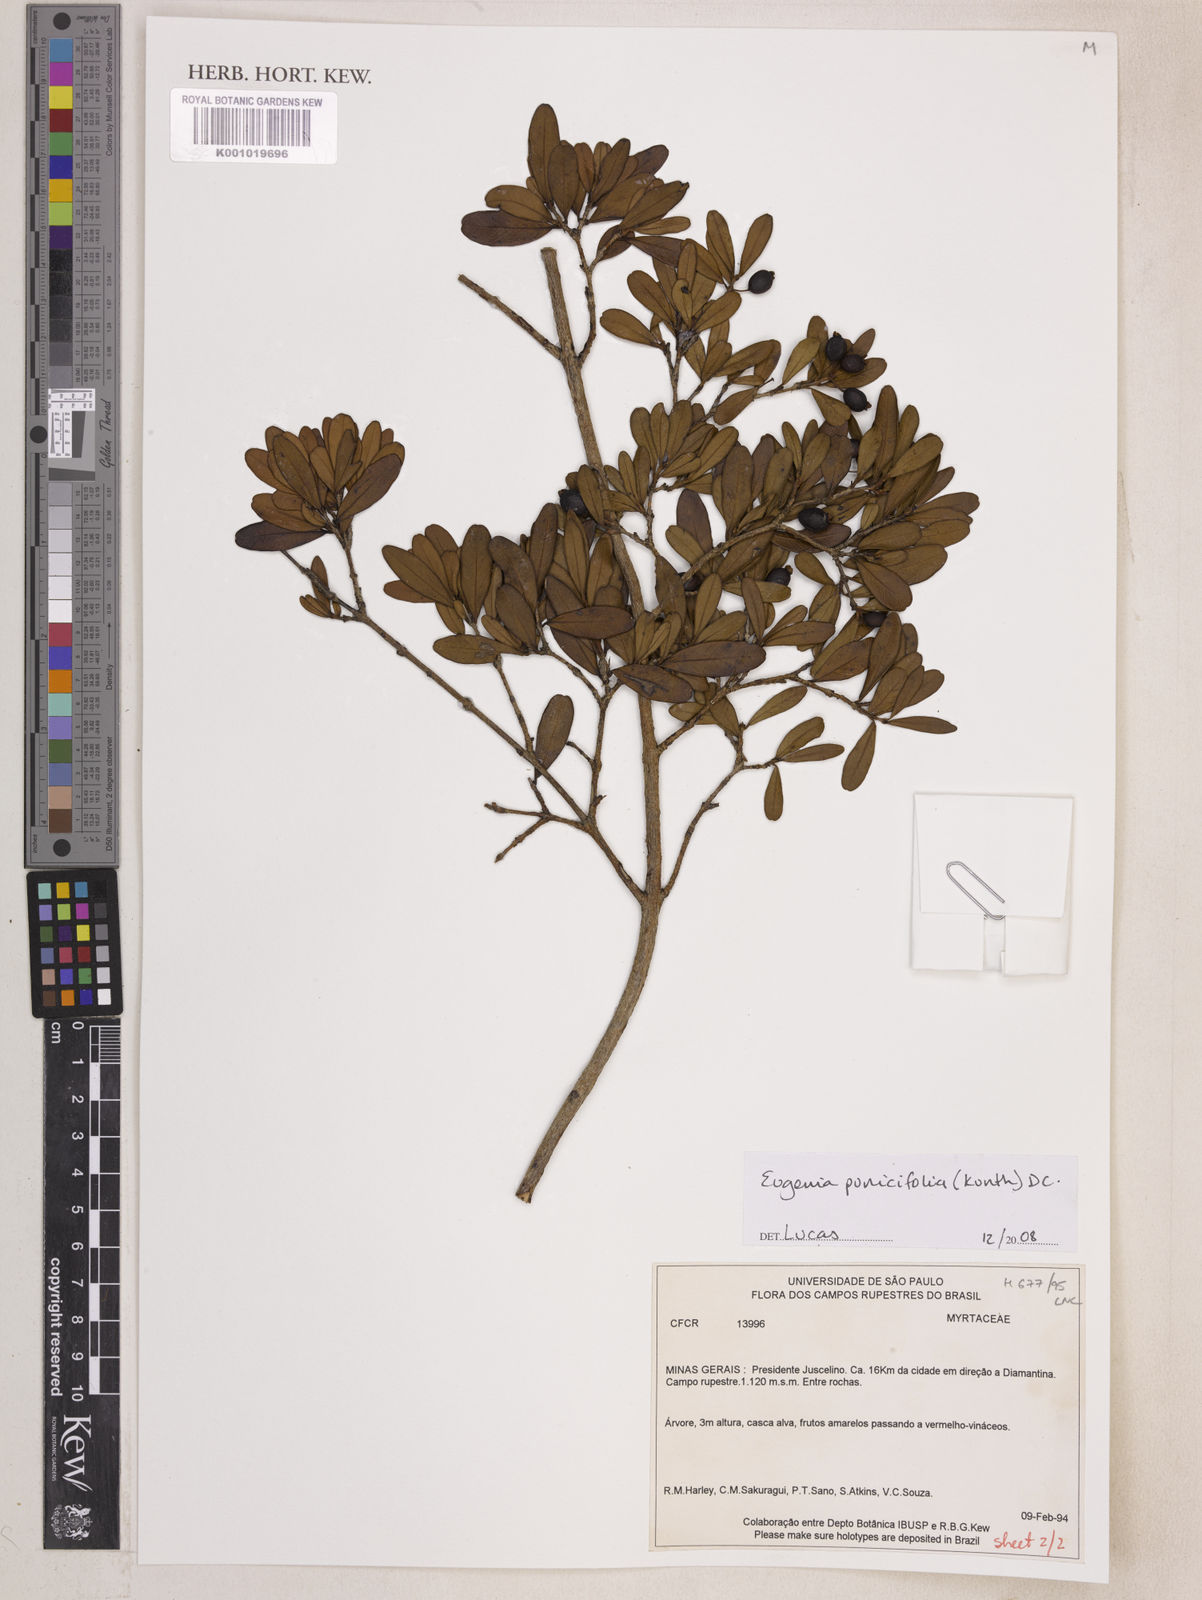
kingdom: Plantae
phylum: Tracheophyta
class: Magnoliopsida
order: Myrtales
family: Myrtaceae
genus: Eugenia
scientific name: Eugenia punicifolia
